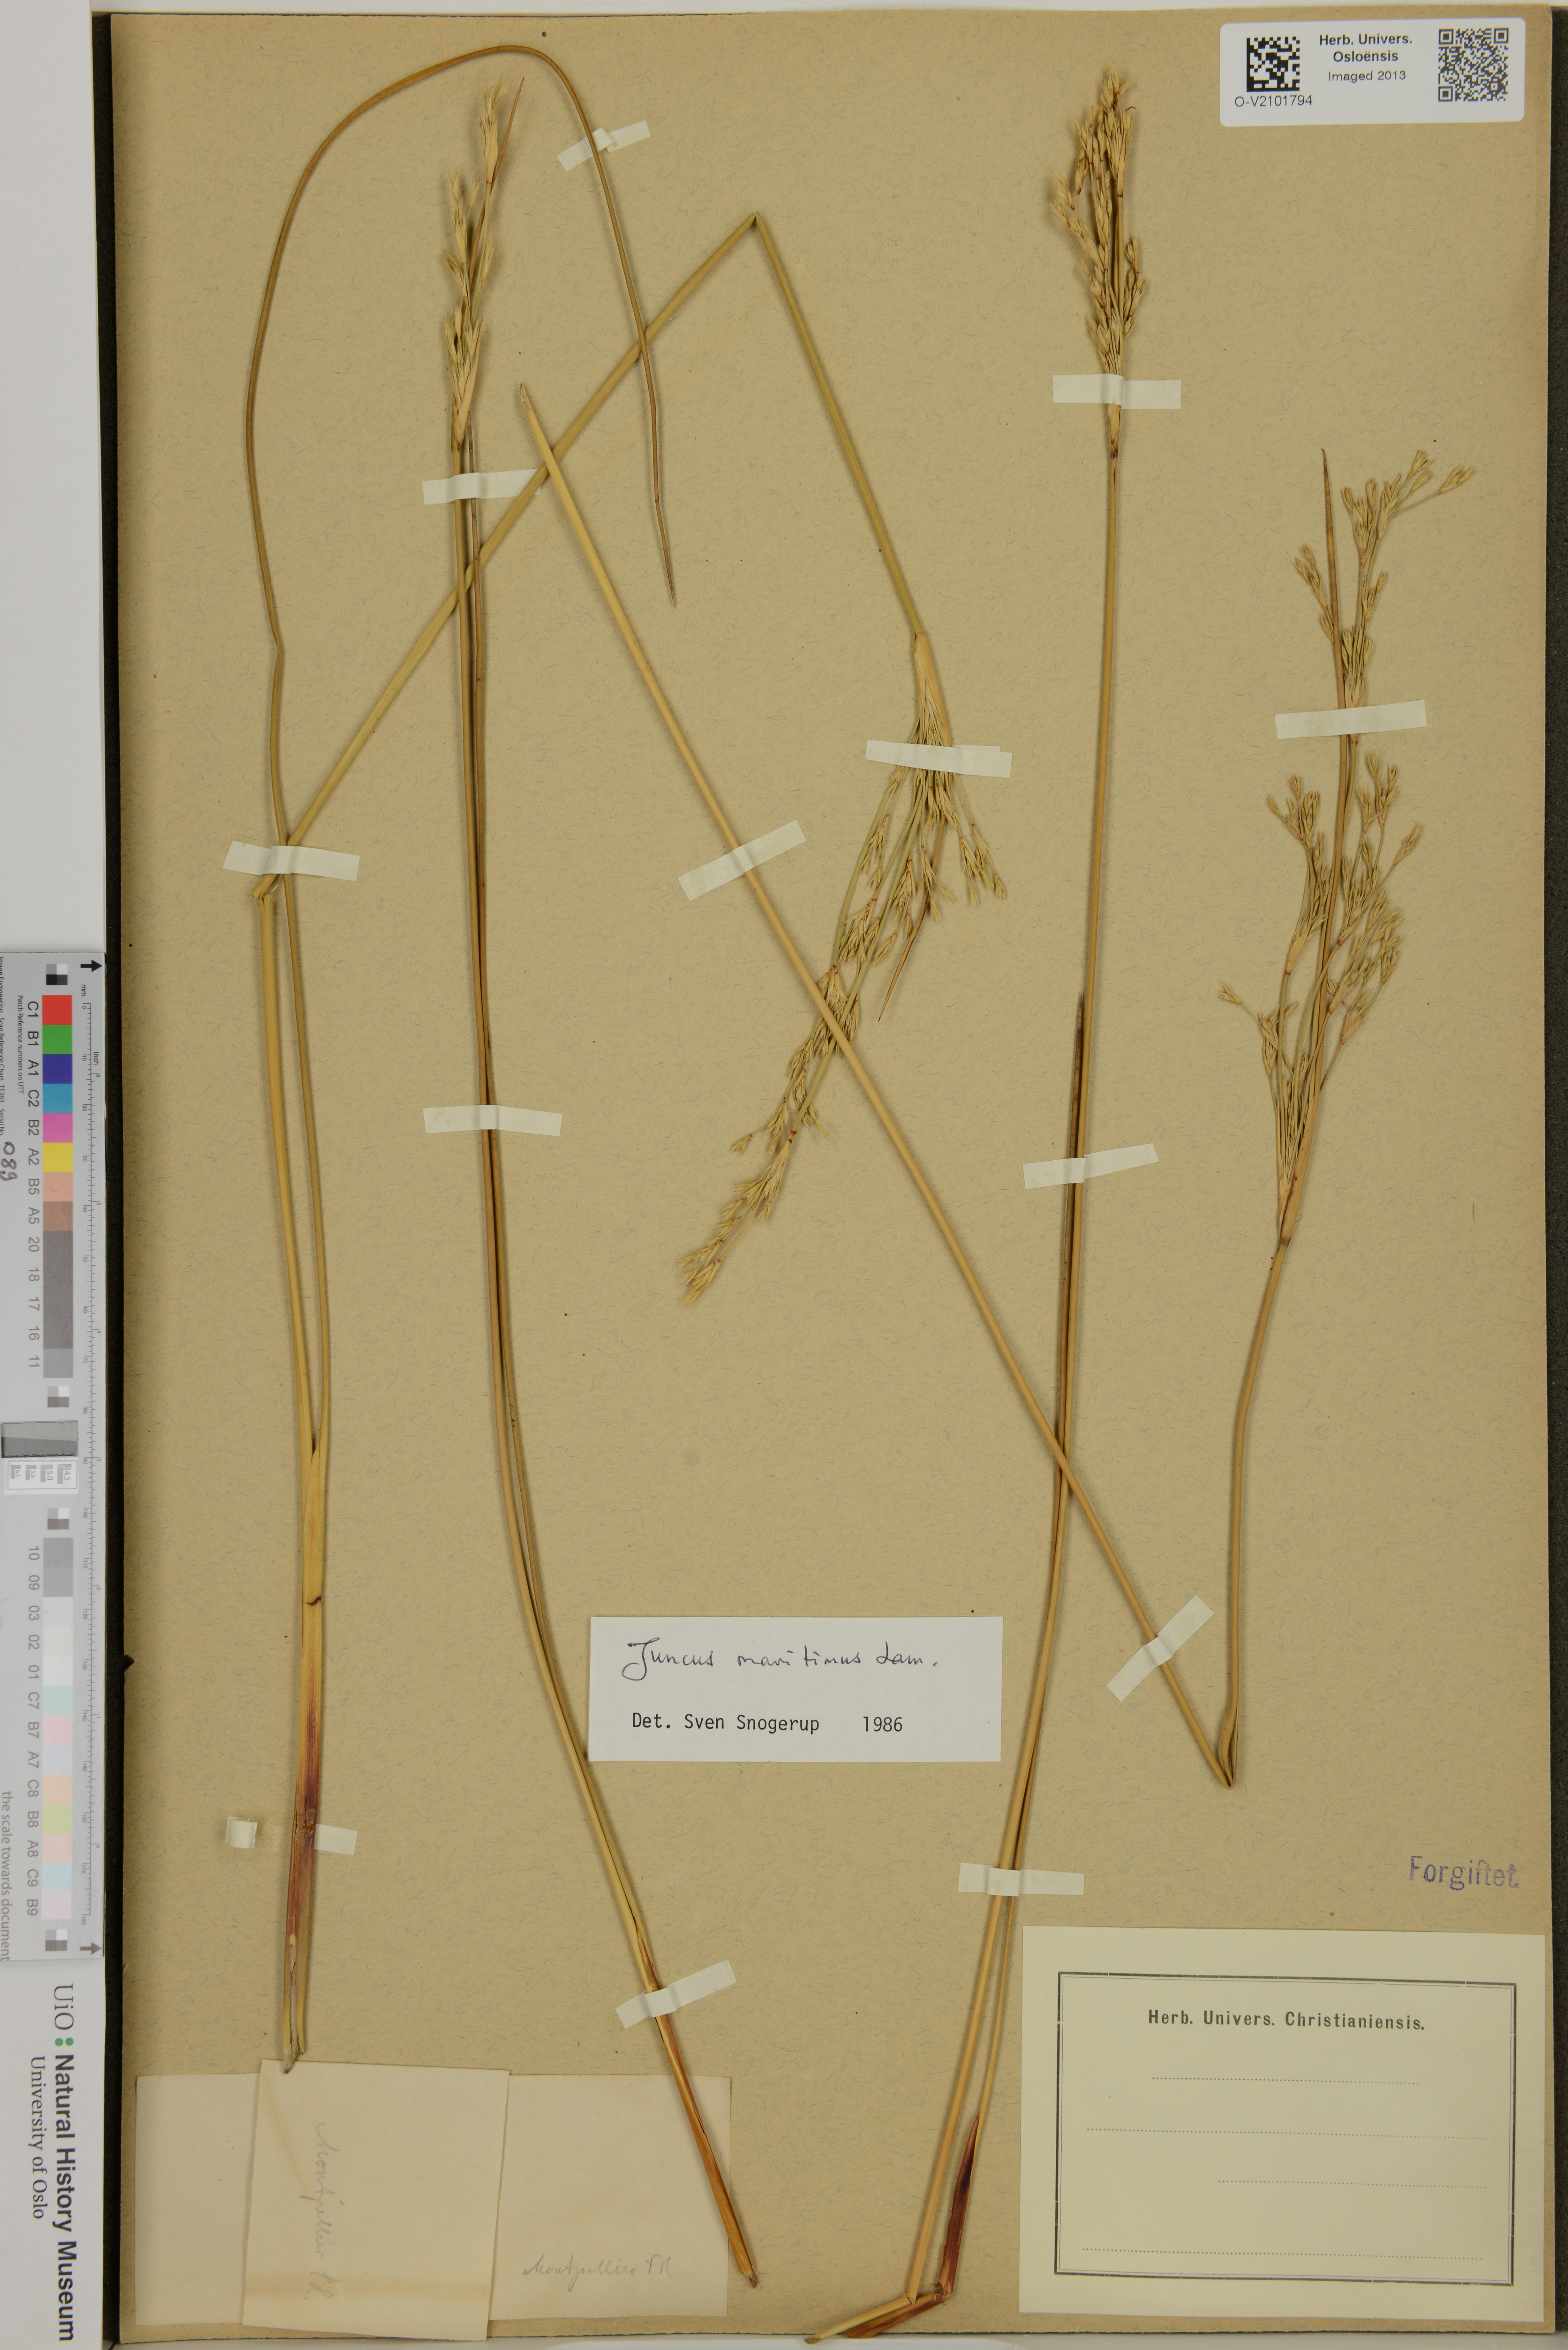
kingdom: Plantae
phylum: Tracheophyta
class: Liliopsida
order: Poales
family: Juncaceae
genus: Juncus
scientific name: Juncus maritimus
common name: Sea rush
